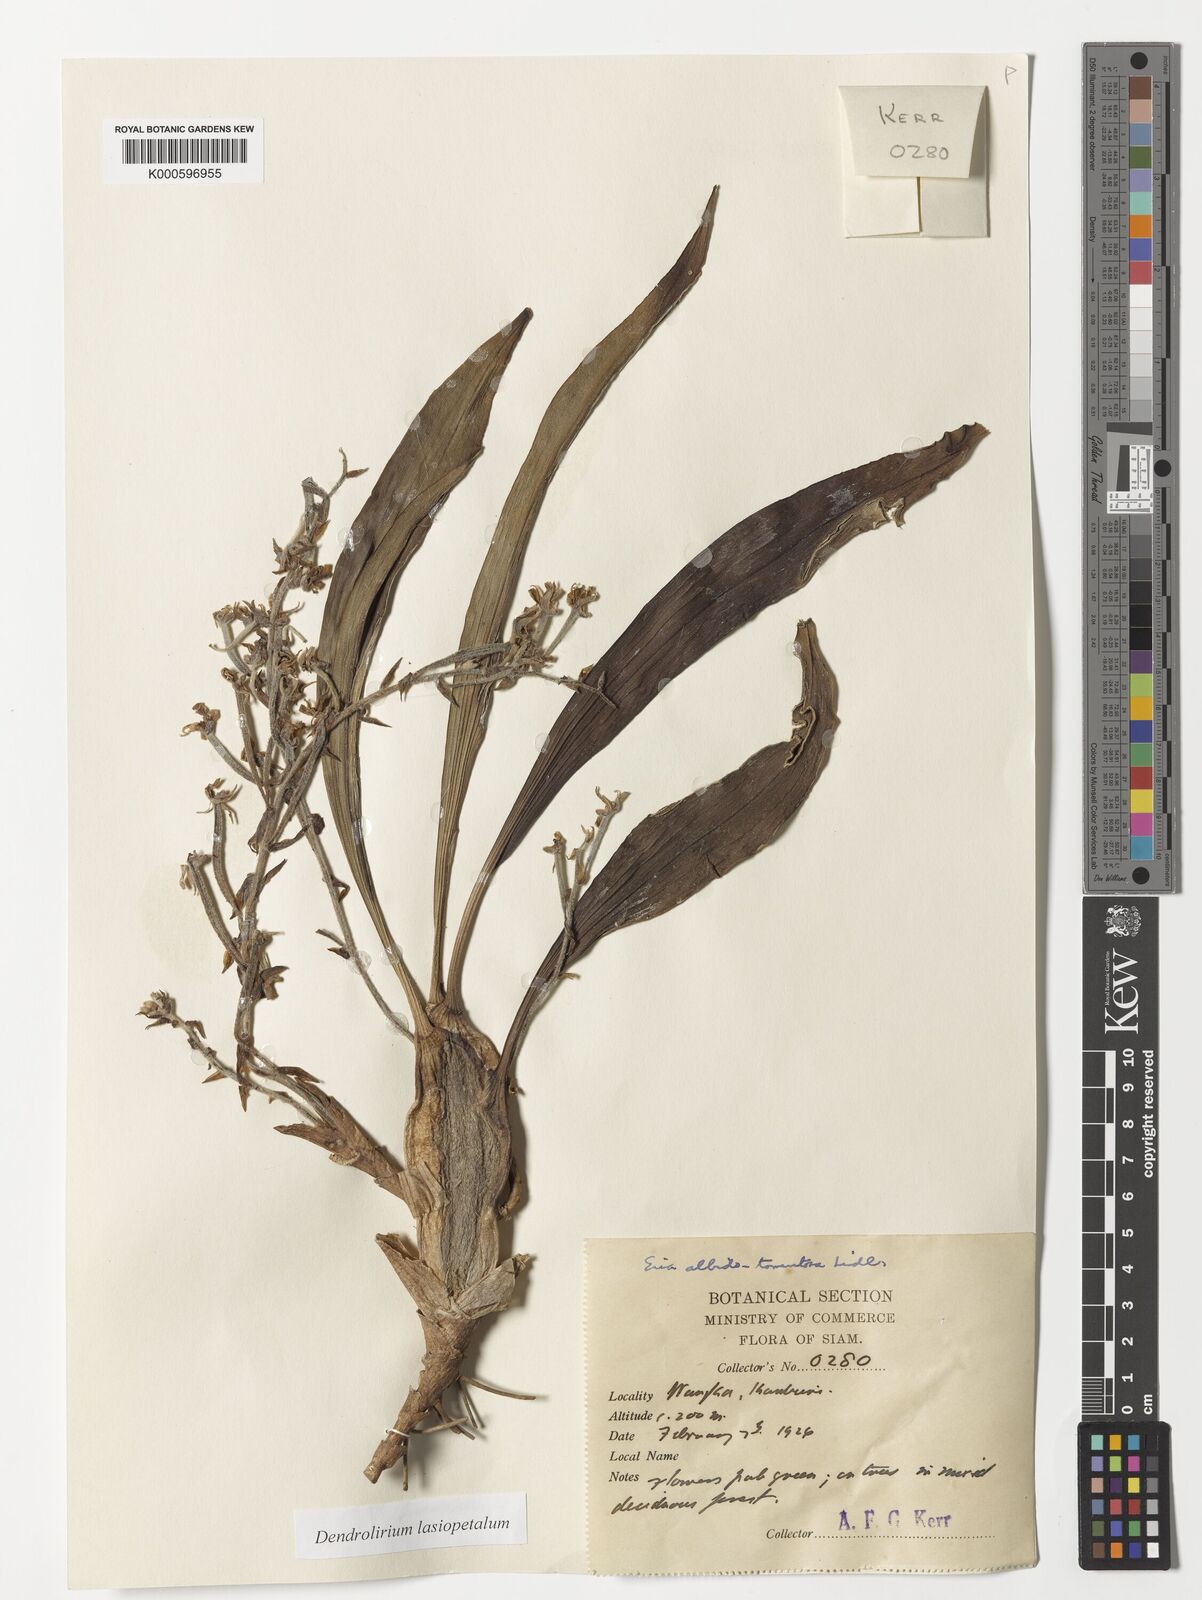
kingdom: Plantae
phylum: Tracheophyta
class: Liliopsida
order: Asparagales
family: Orchidaceae
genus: Dendrolirium
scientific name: Dendrolirium lasiopetalum
